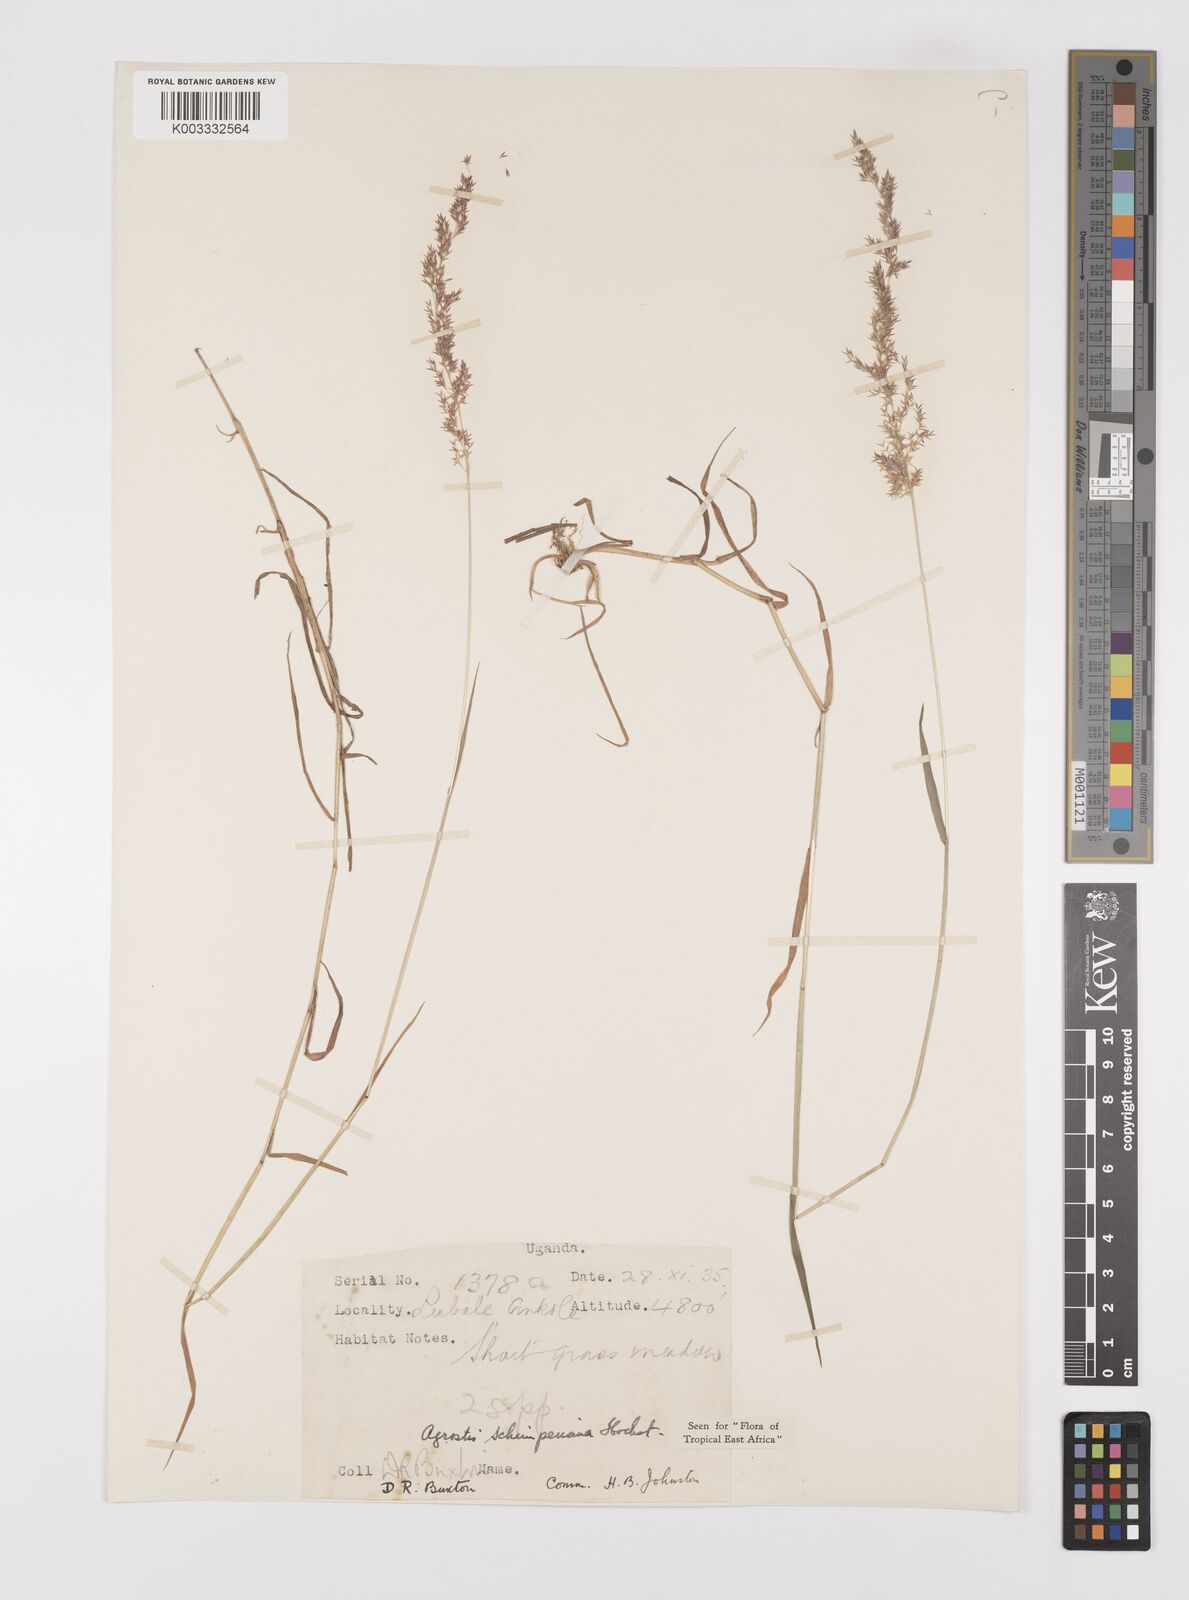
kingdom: Plantae
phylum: Tracheophyta
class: Liliopsida
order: Poales
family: Poaceae
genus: Polypogon
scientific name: Polypogon schimperianus
